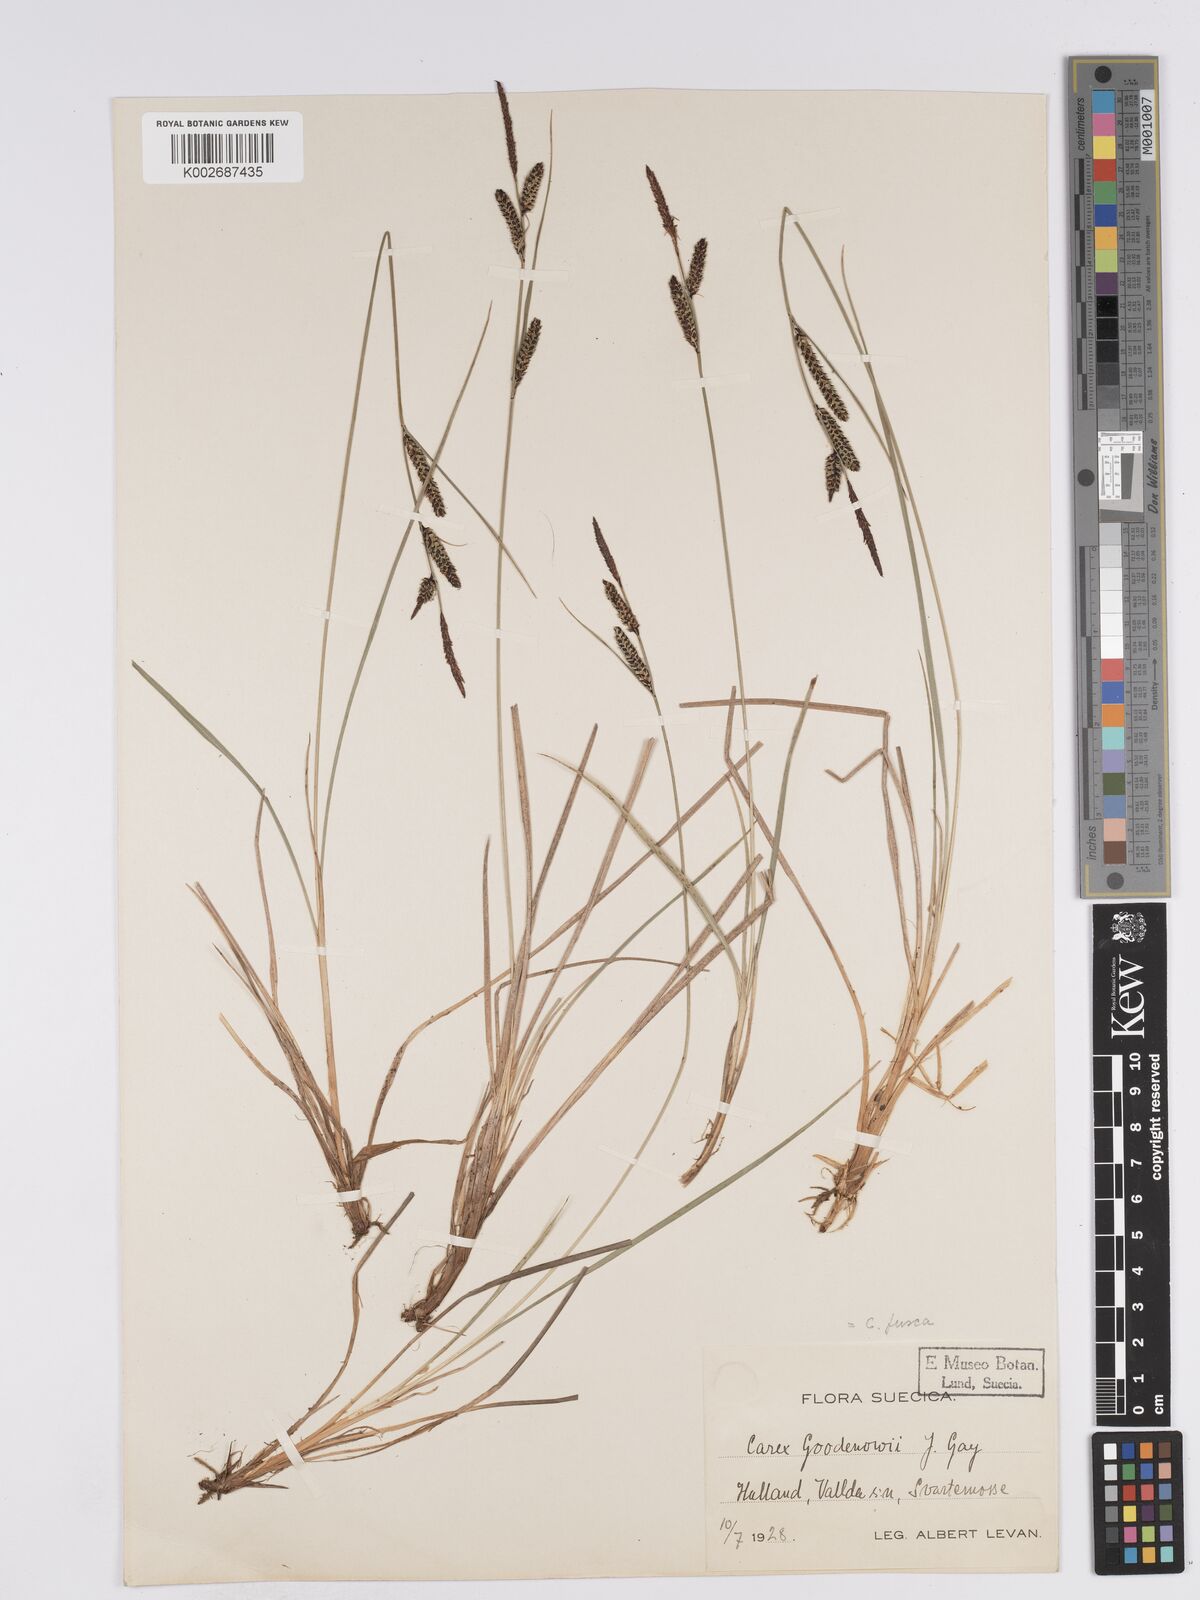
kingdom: Plantae
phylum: Tracheophyta
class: Liliopsida
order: Poales
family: Cyperaceae
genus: Carex
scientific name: Carex nigra
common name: Common sedge
